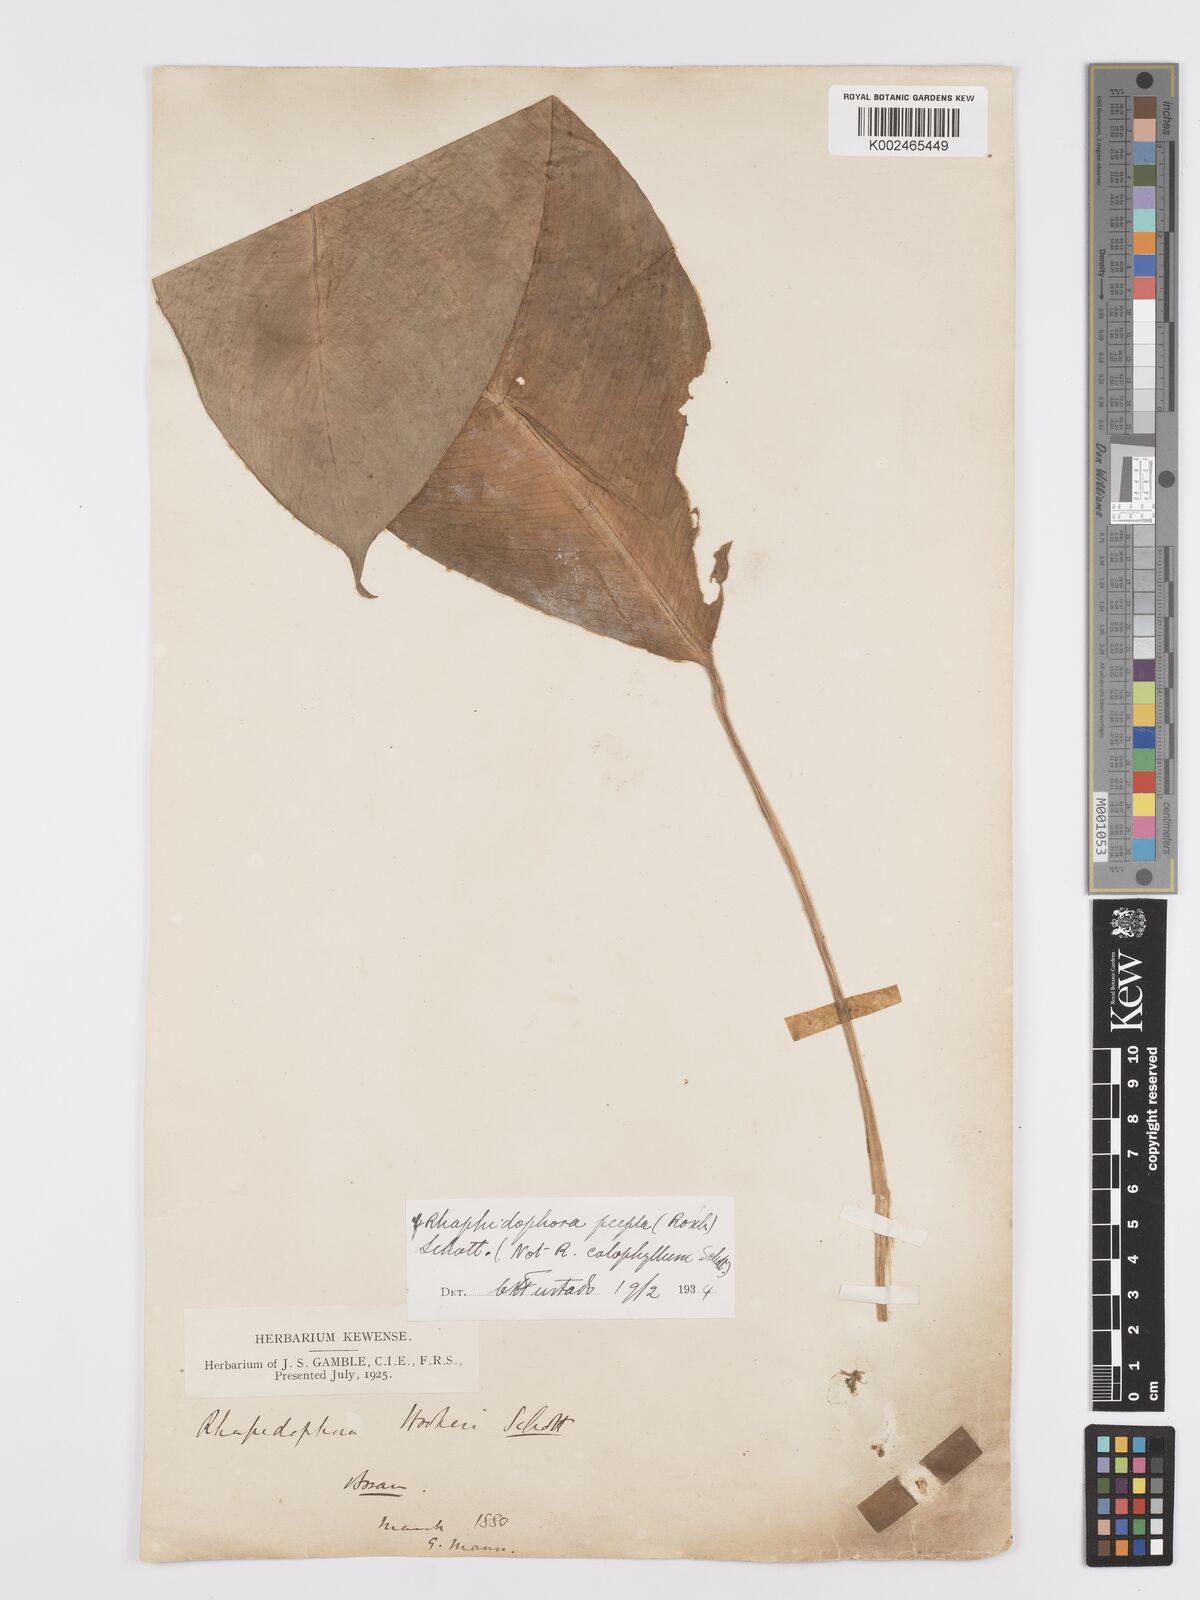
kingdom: Plantae
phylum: Tracheophyta
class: Liliopsida
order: Alismatales
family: Araceae
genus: Rhaphidophora
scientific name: Rhaphidophora hookeri
